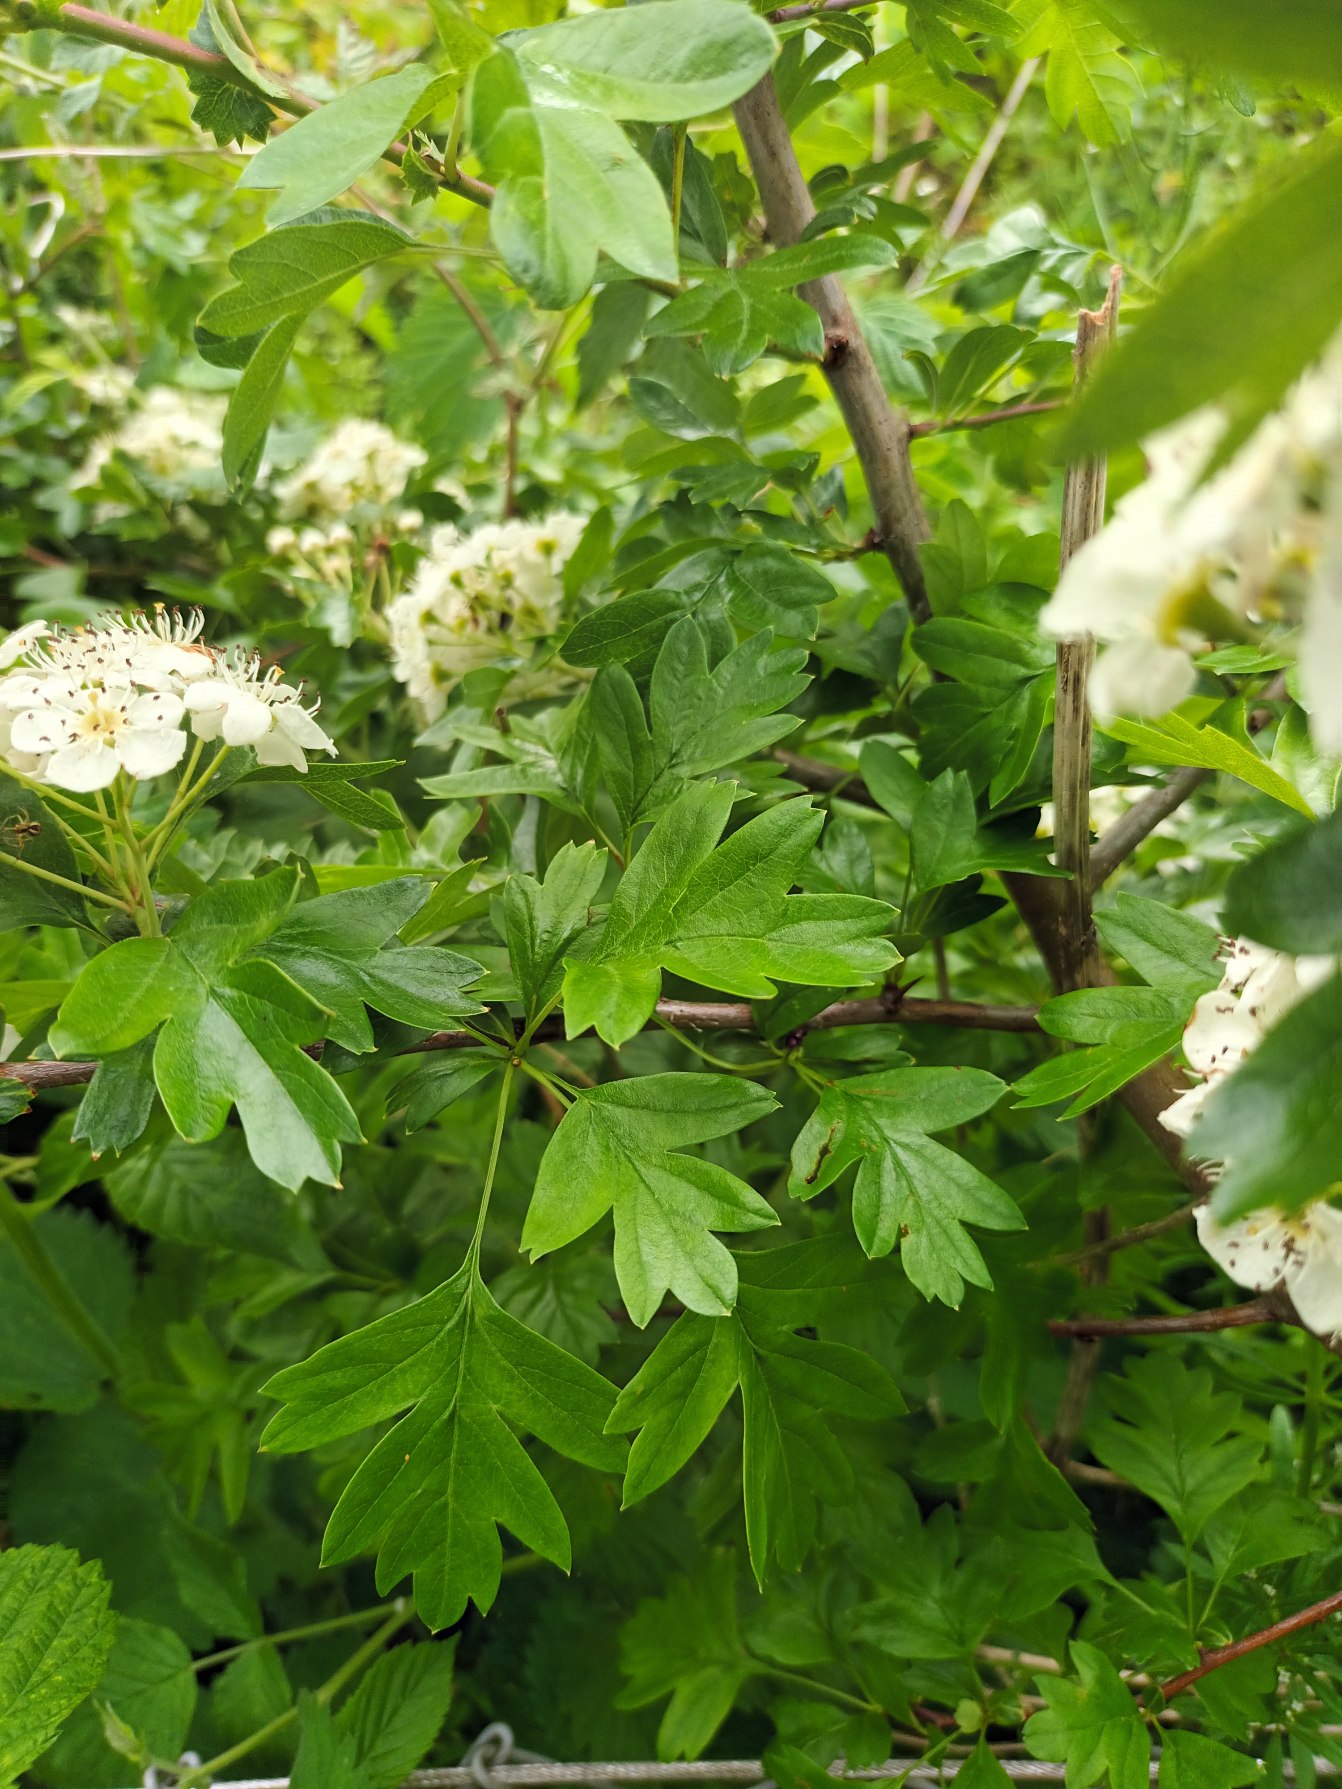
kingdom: Plantae
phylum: Tracheophyta
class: Magnoliopsida
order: Rosales
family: Rosaceae
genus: Crataegus
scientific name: Crataegus monogyna
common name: Engriflet hvidtjørn
